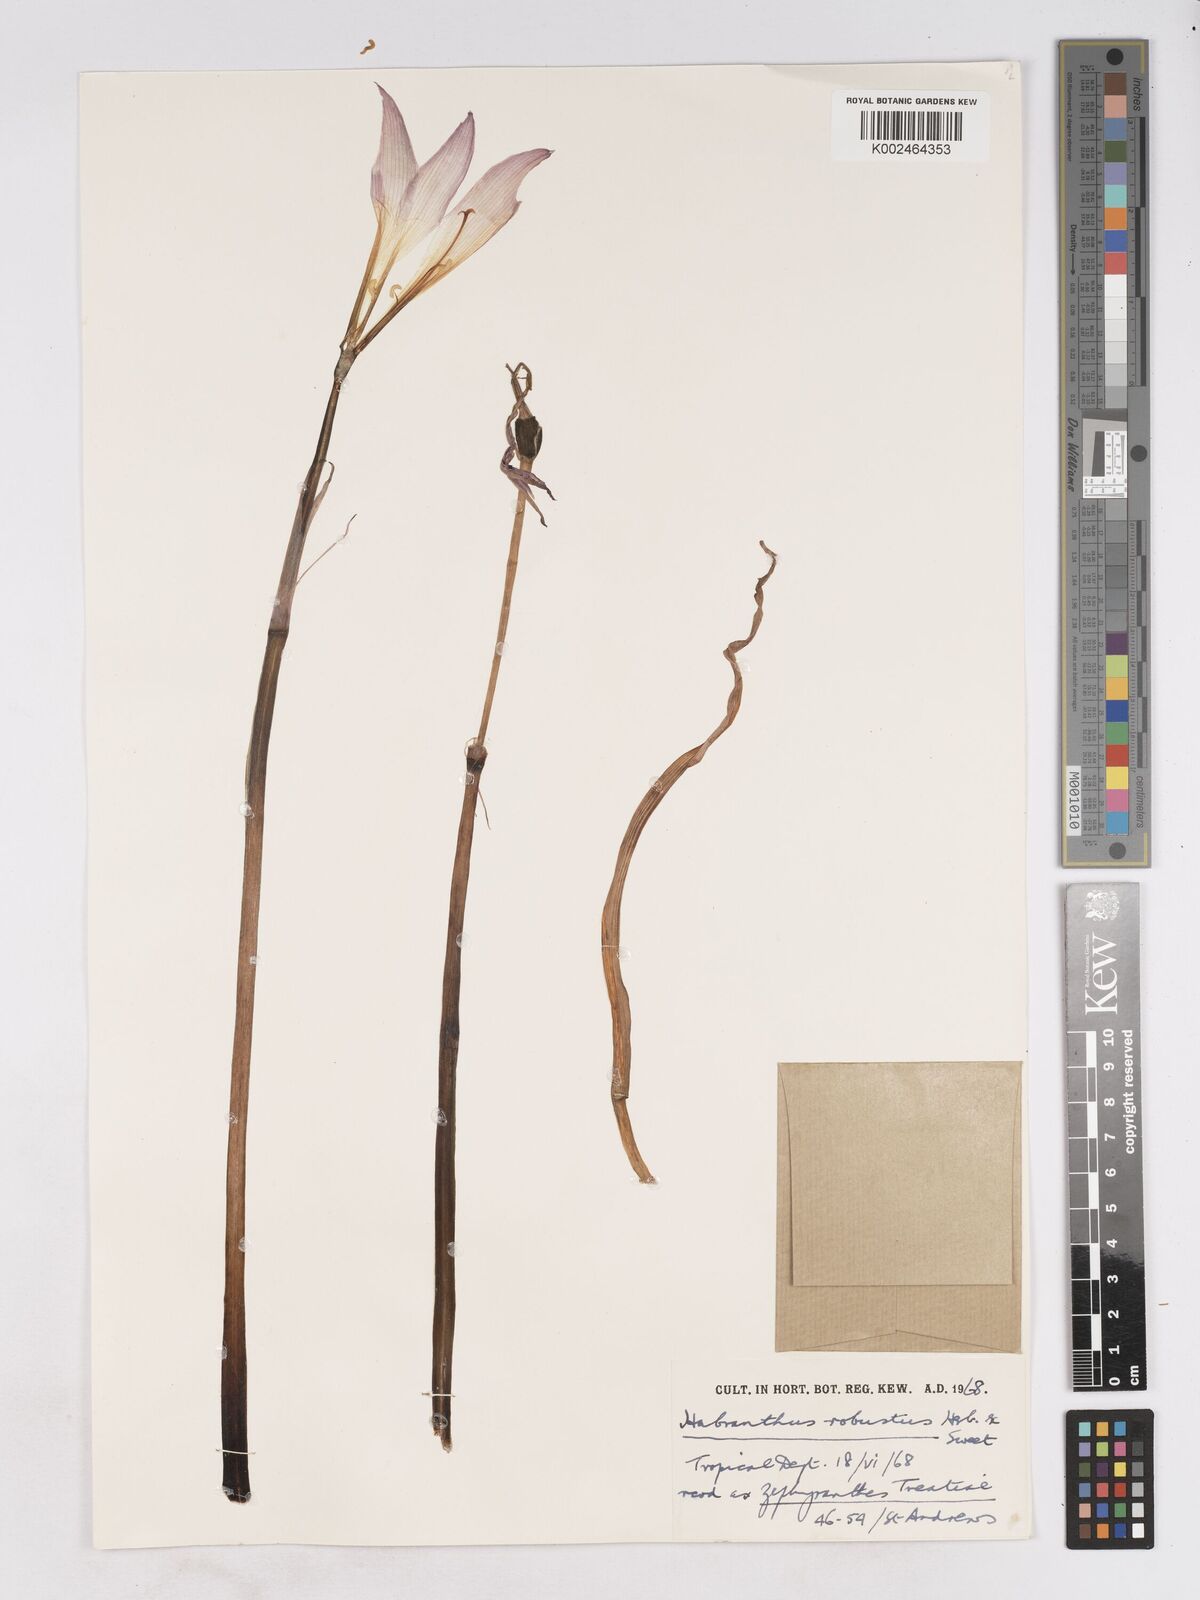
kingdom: Plantae
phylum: Tracheophyta
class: Liliopsida
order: Asparagales
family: Amaryllidaceae
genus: Zephyranthes
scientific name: Zephyranthes robusta
